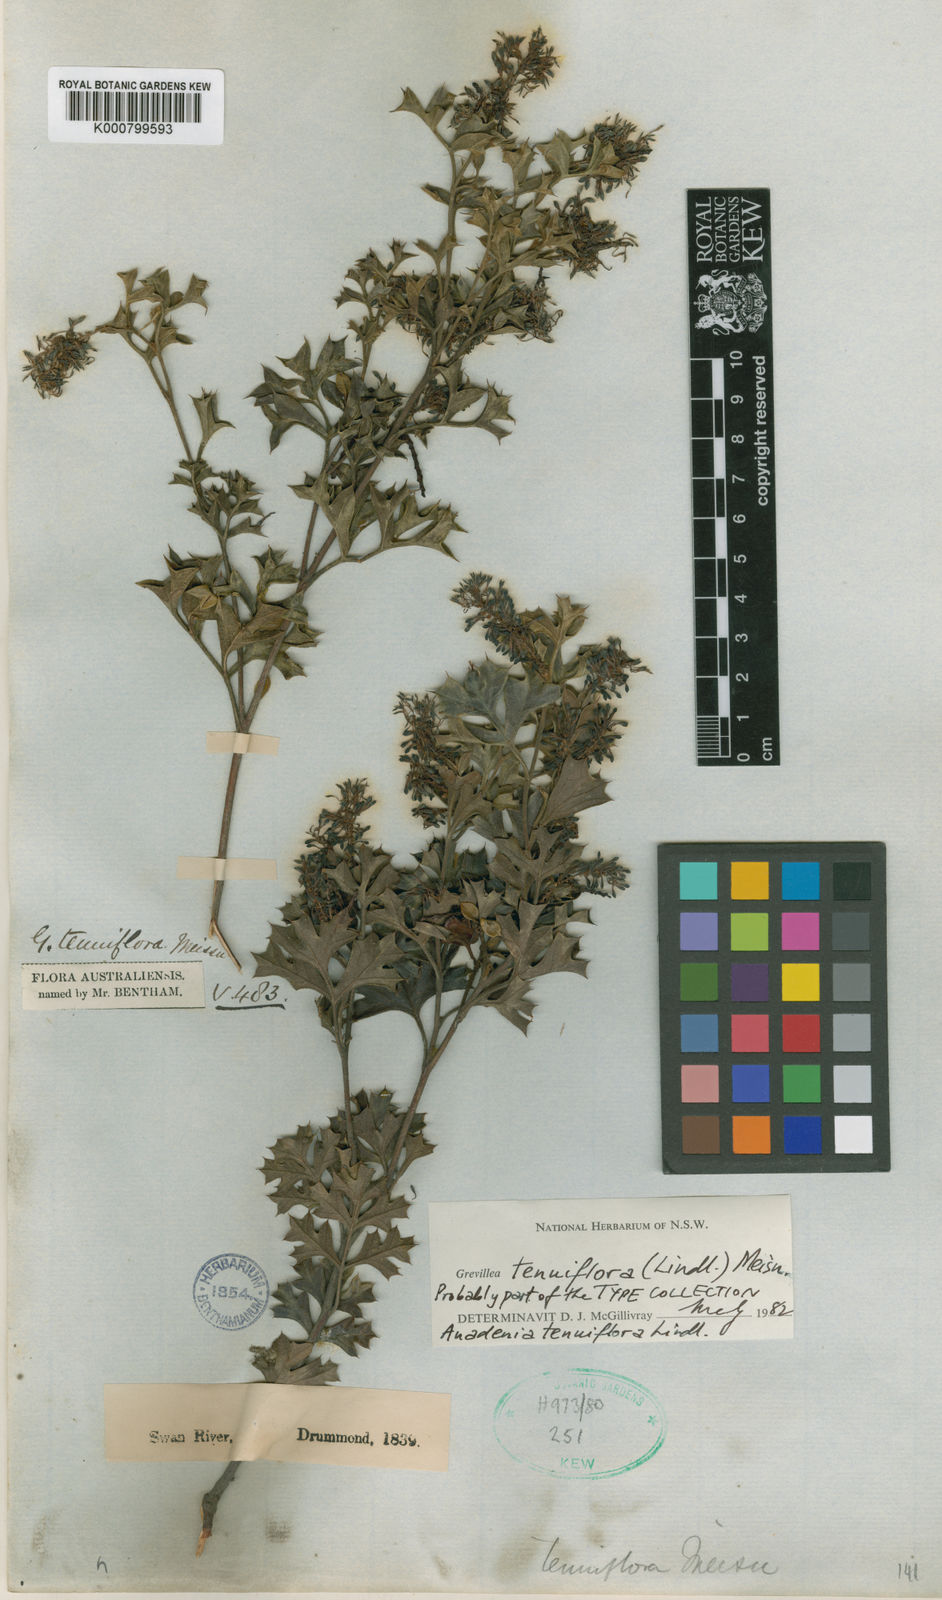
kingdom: Plantae
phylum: Tracheophyta
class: Magnoliopsida
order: Proteales
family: Proteaceae
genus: Grevillea
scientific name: Grevillea tenuiflora
